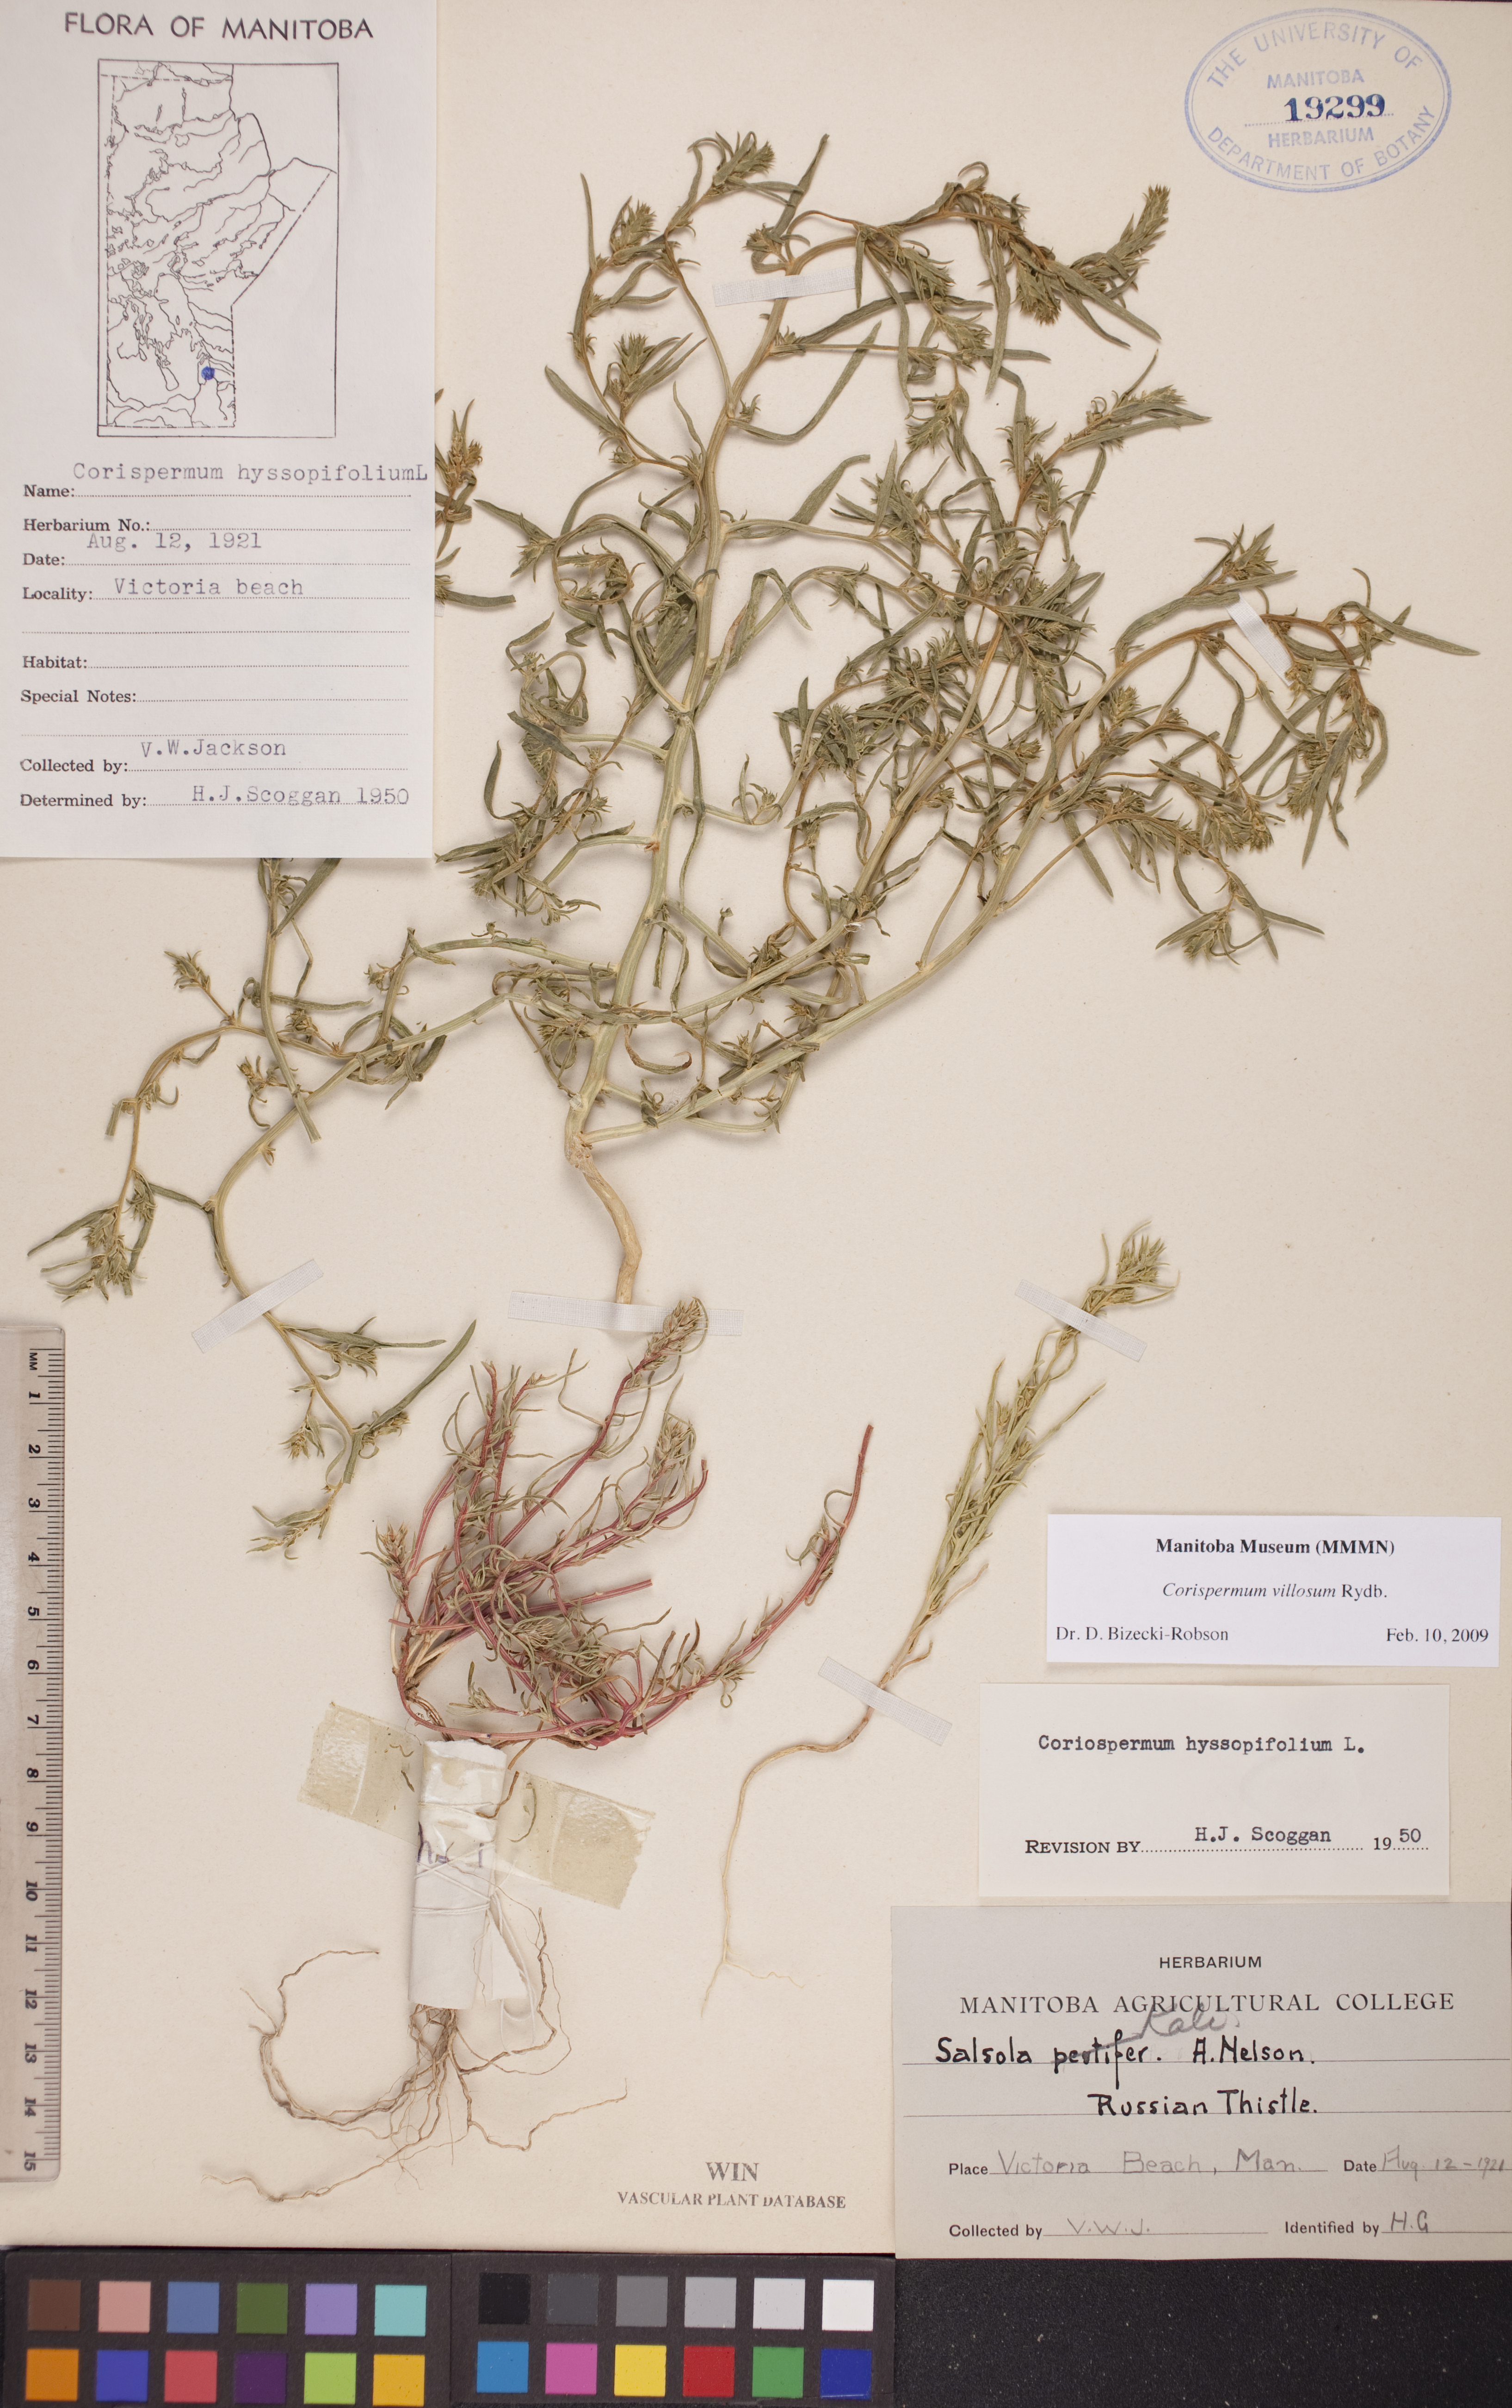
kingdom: Plantae
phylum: Tracheophyta
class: Magnoliopsida
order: Caryophyllales
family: Amaranthaceae
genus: Corispermum
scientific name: Corispermum villosum
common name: Hairy bugseed
